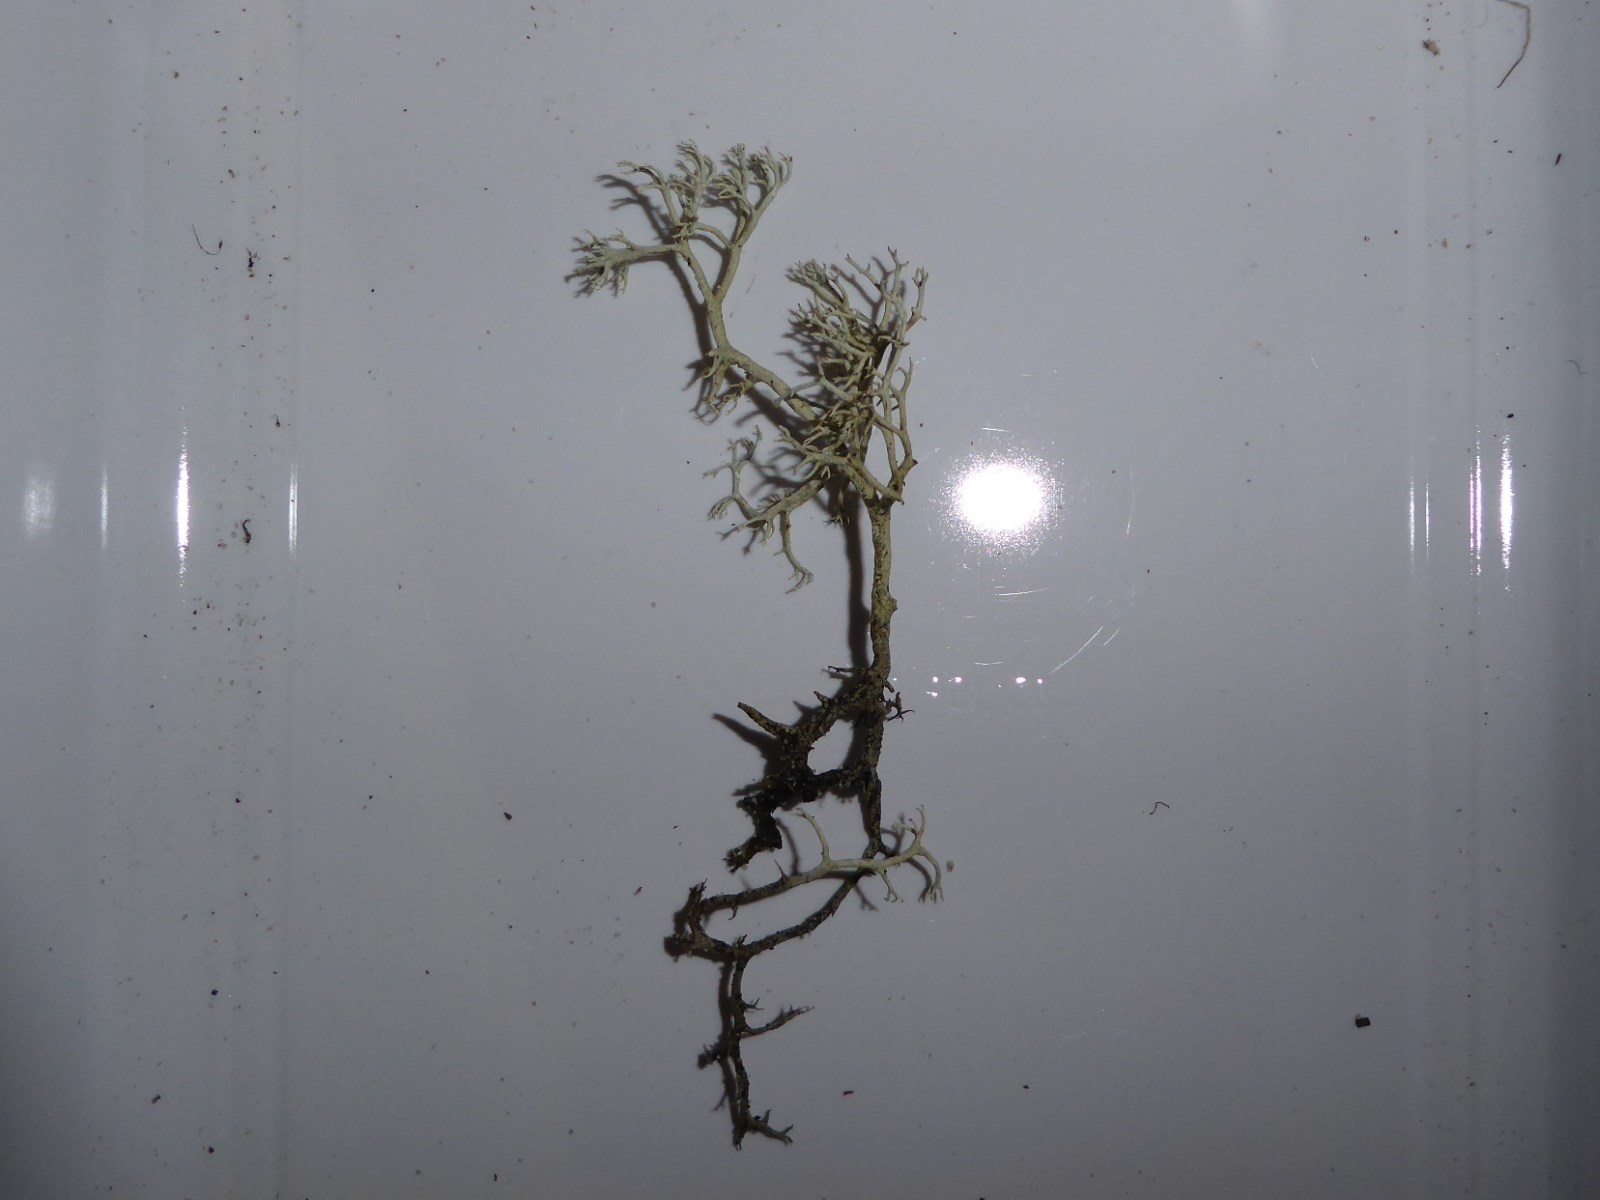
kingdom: Fungi
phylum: Ascomycota
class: Lecanoromycetes
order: Lecanorales
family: Cladoniaceae
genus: Cladonia
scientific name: Cladonia stygia
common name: styg rensdyrlav
